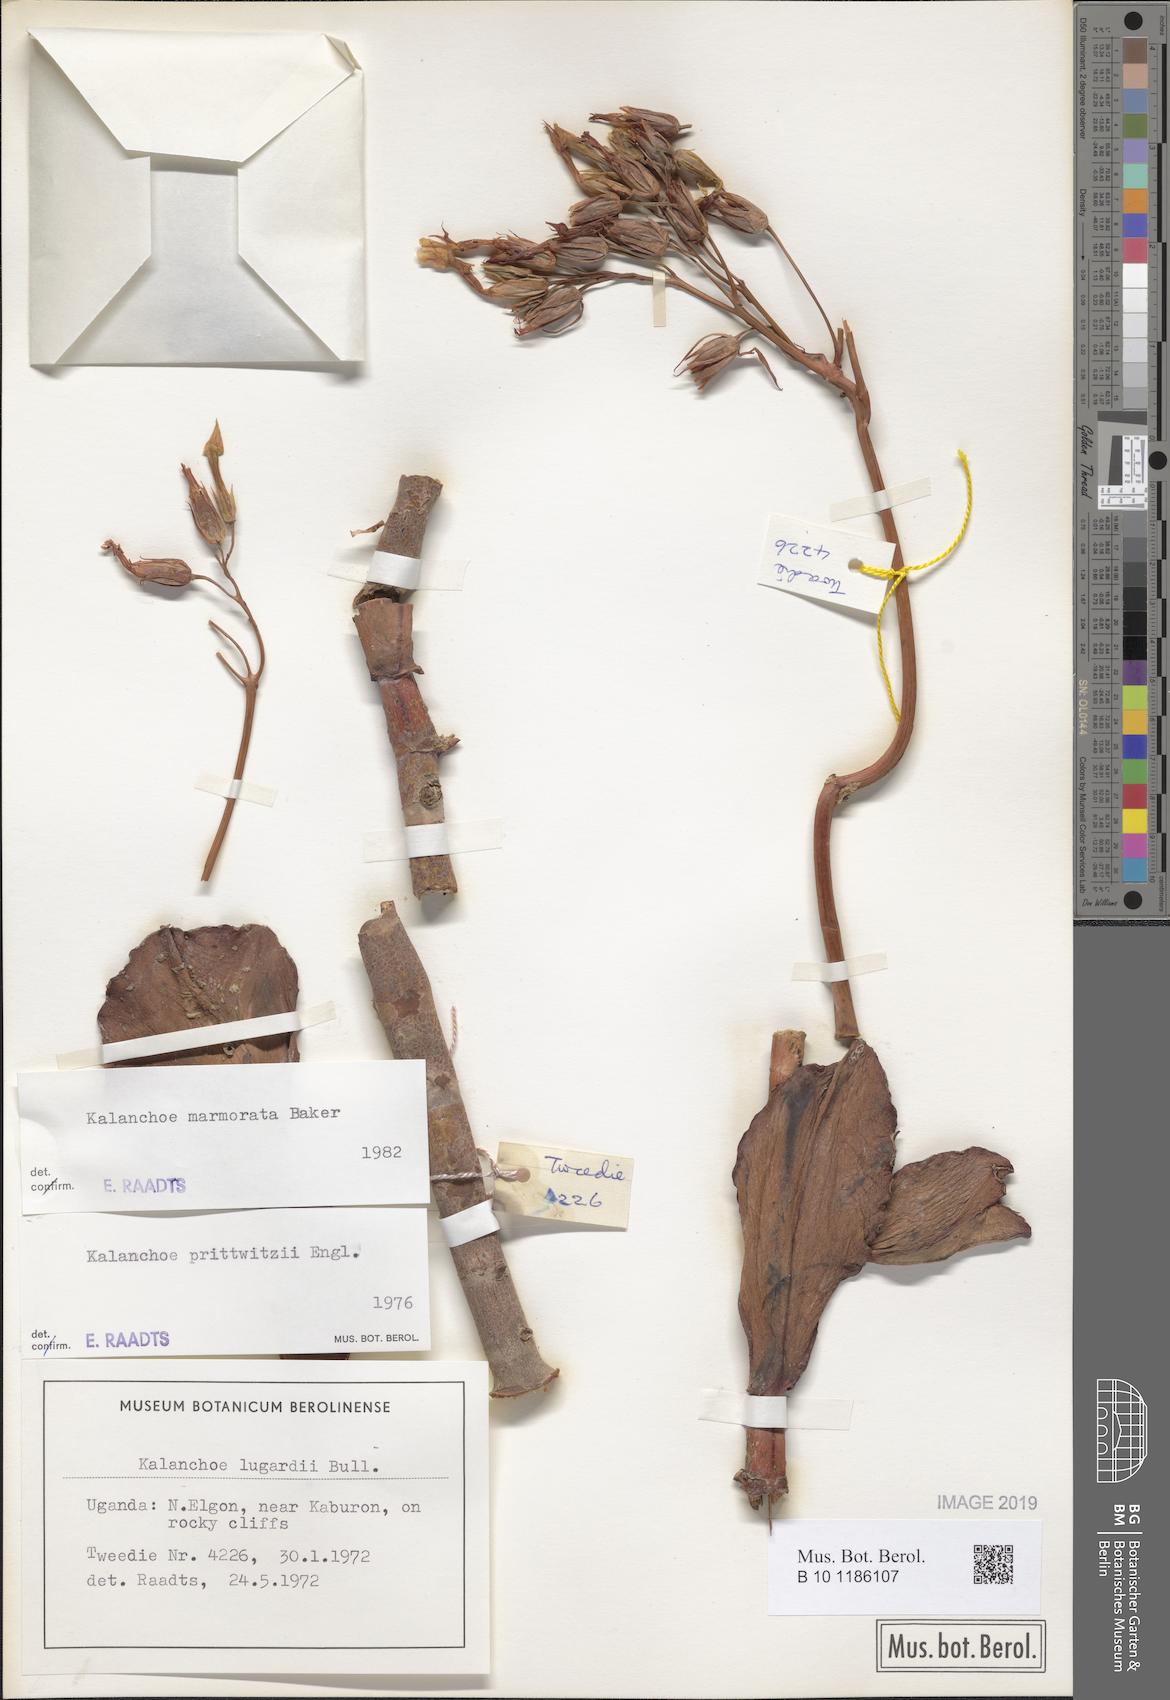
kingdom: Plantae
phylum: Tracheophyta
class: Magnoliopsida
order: Saxifragales
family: Crassulaceae
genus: Kalanchoe
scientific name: Kalanchoe marmorata
